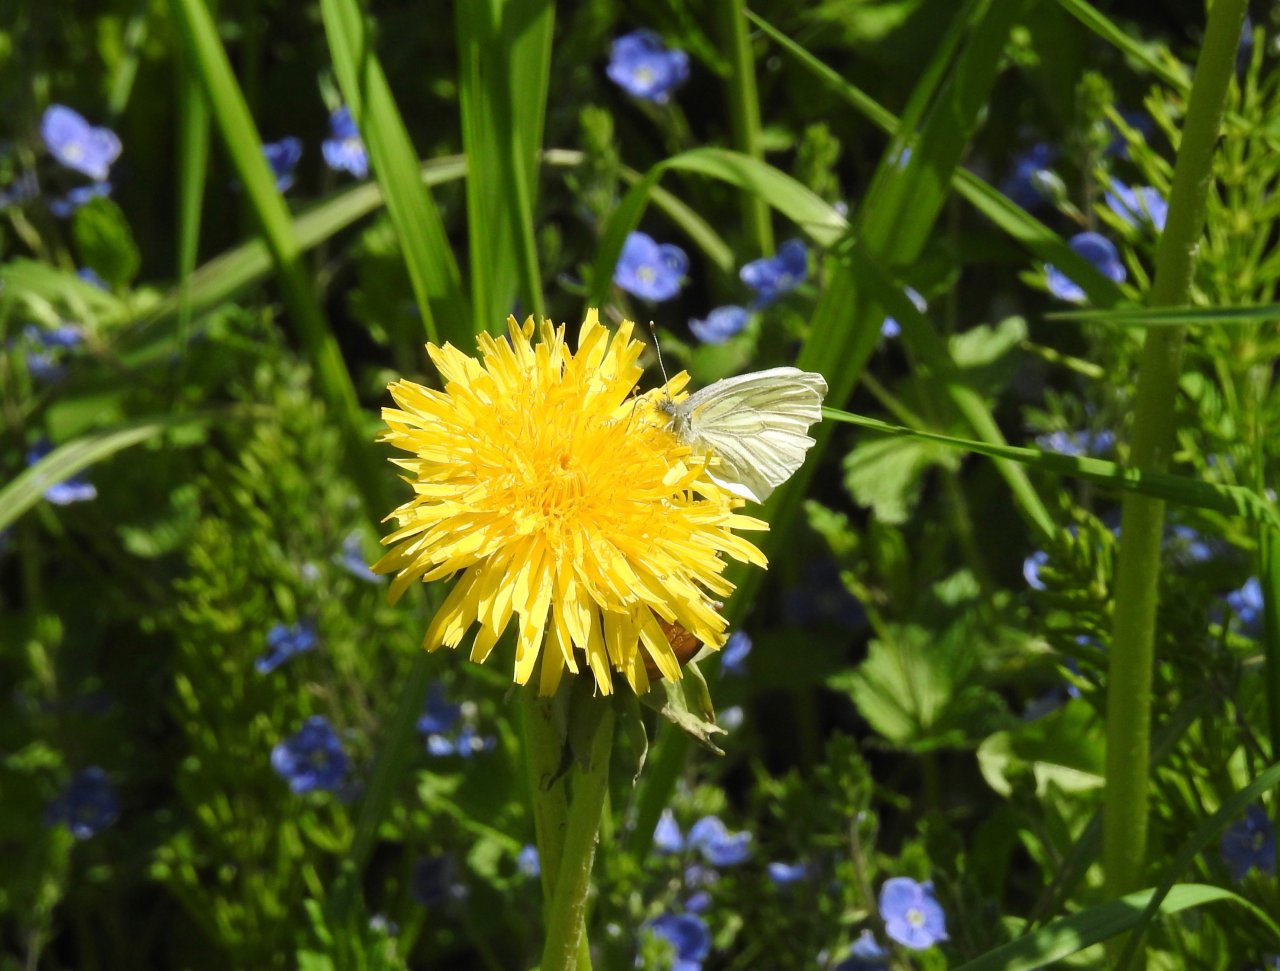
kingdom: Animalia
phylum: Arthropoda
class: Insecta
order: Lepidoptera
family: Pieridae
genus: Pieris
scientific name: Pieris oleracea
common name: Mustard White
